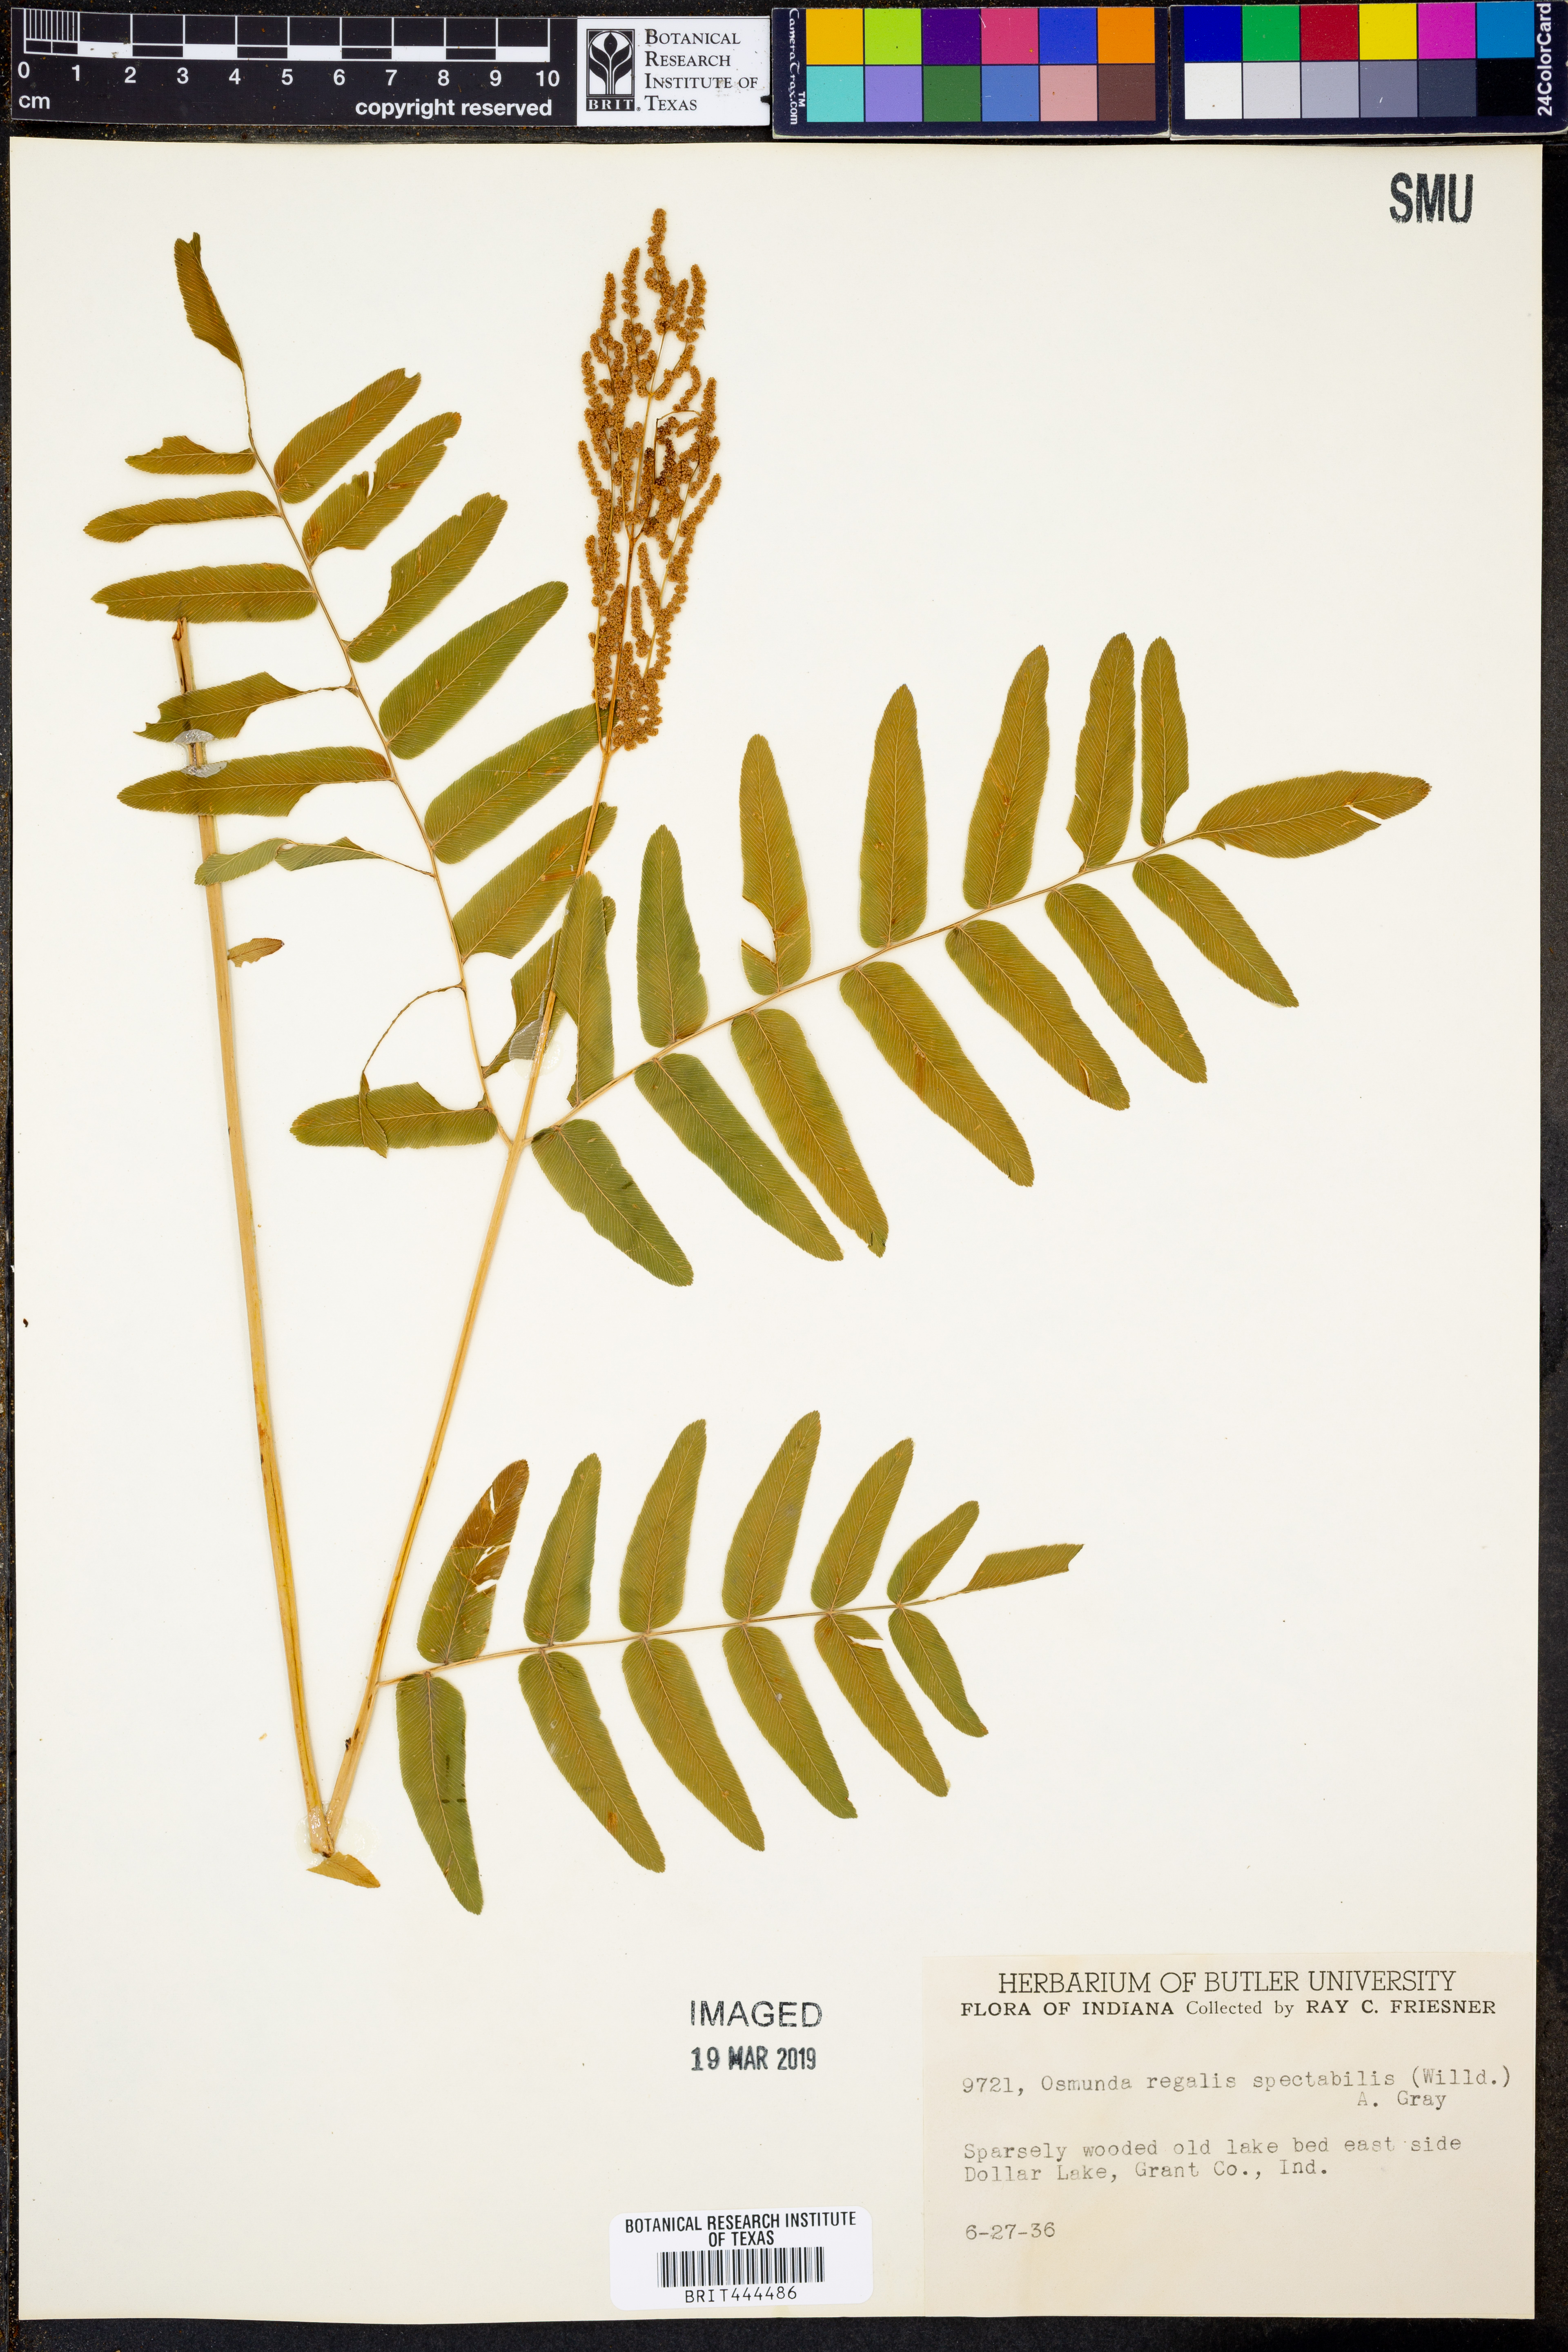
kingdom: Plantae
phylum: Tracheophyta
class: Polypodiopsida
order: Osmundales
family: Osmundaceae
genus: Osmunda
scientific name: Osmunda spectabilis
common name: American royal fern
